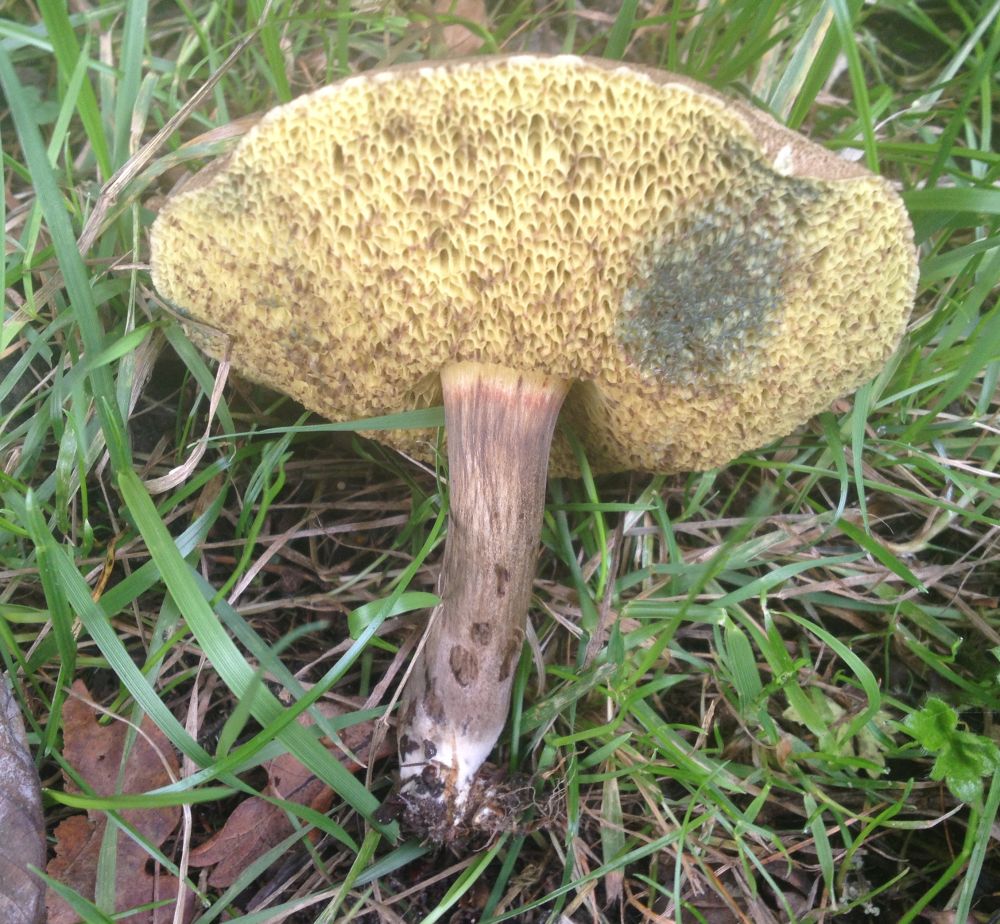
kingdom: Fungi
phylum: Basidiomycota
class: Agaricomycetes
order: Boletales
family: Boletaceae
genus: Xerocomellus
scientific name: Xerocomellus
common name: dværgrørhat
